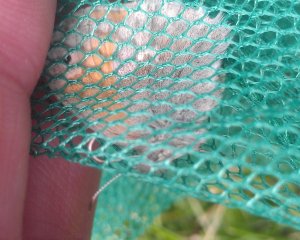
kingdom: Animalia
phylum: Arthropoda
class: Insecta
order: Lepidoptera
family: Nymphalidae
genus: Coenonympha
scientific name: Coenonympha tullia
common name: Large Heath
